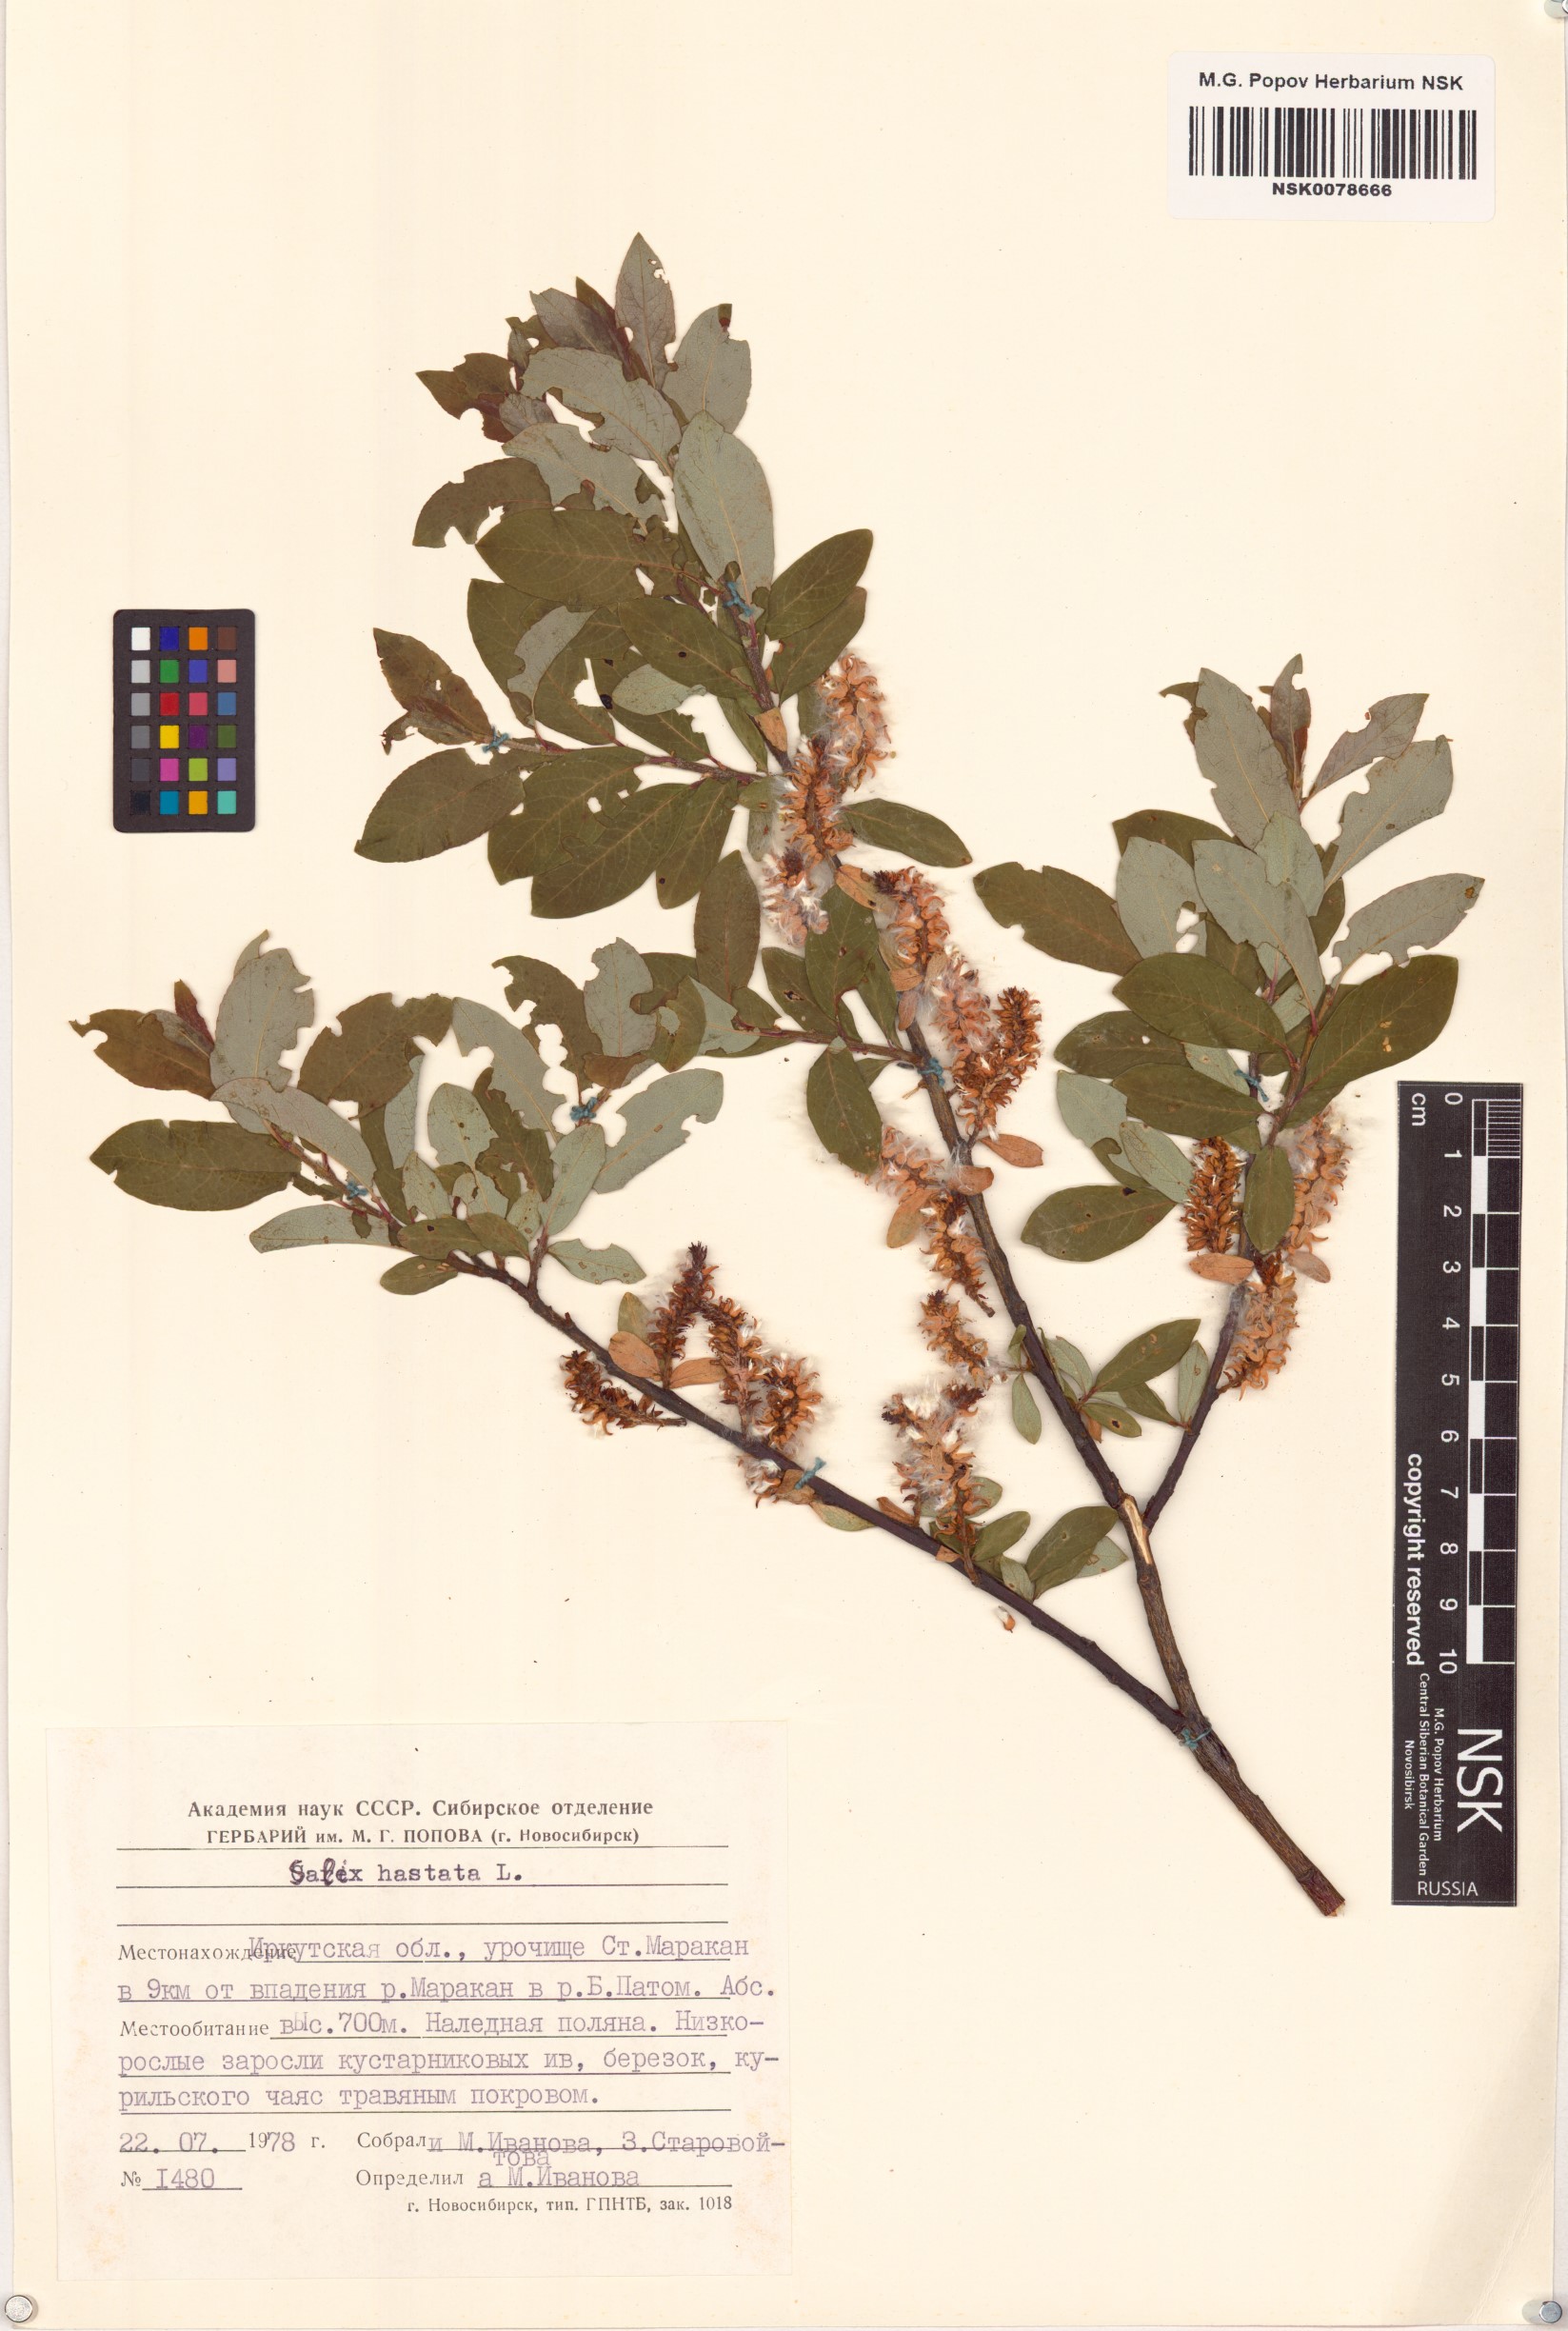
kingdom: Plantae
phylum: Tracheophyta
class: Magnoliopsida
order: Malpighiales
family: Salicaceae
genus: Salix
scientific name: Salix hastata
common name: Halberd willow
